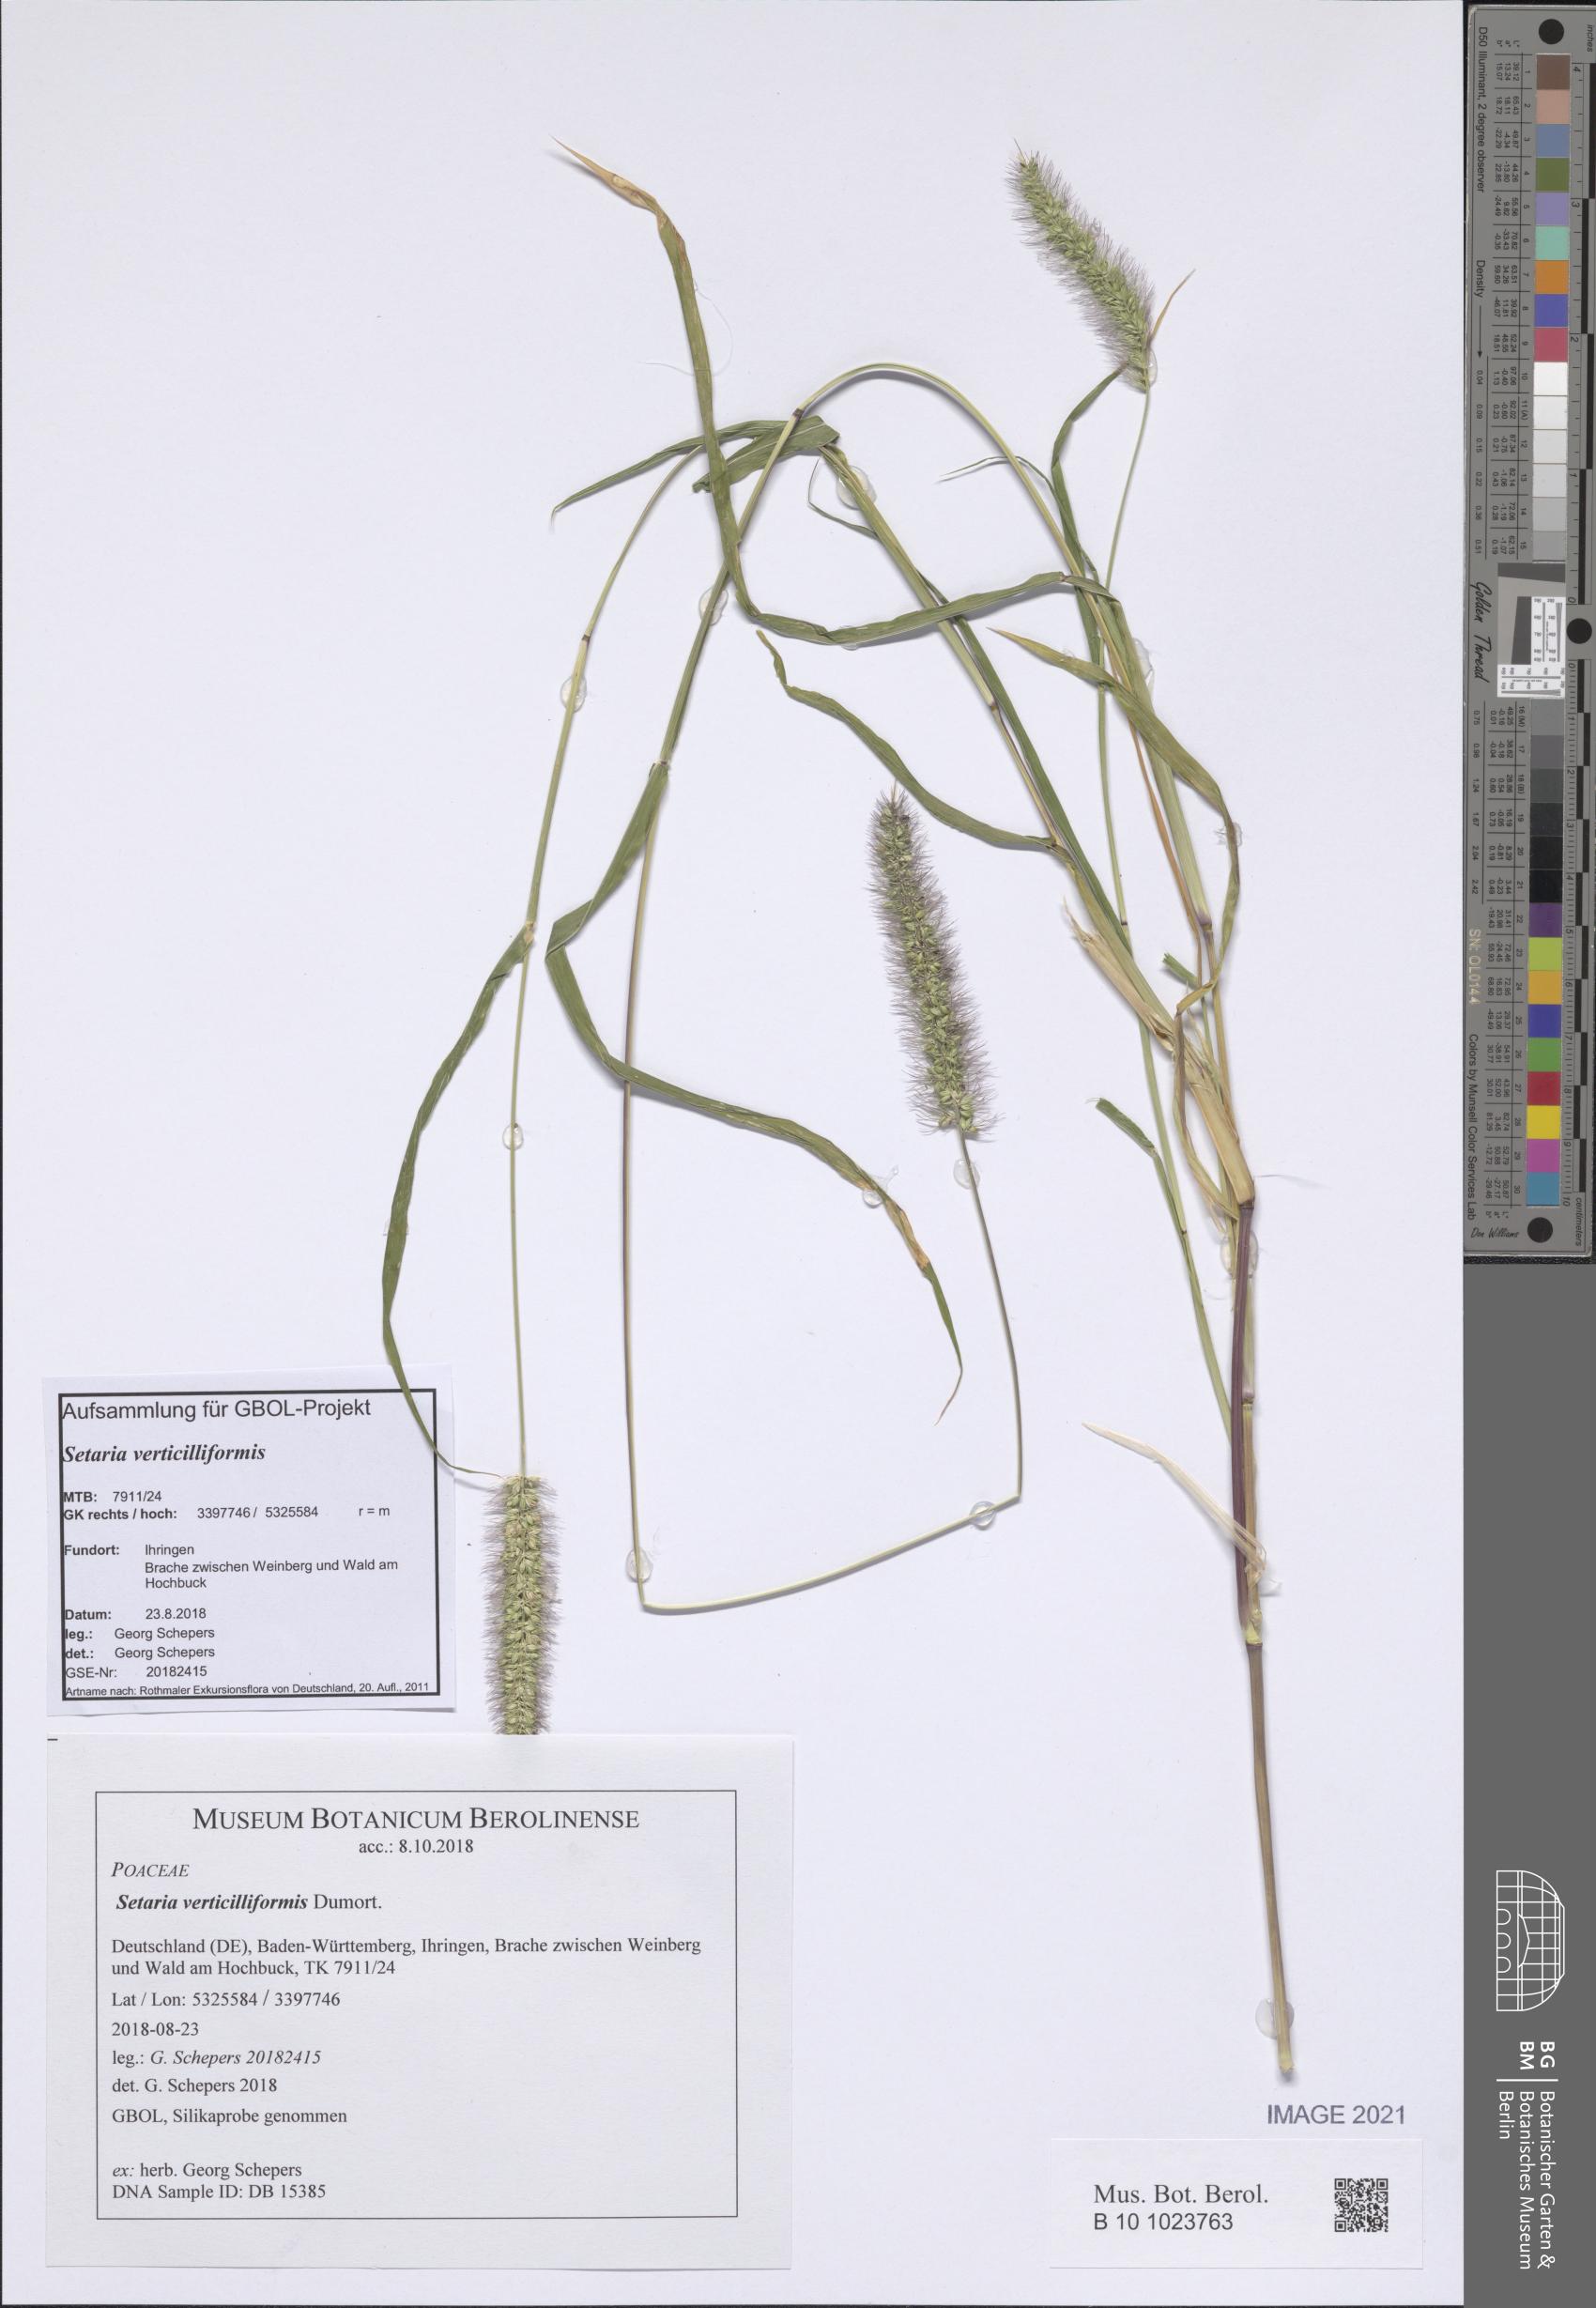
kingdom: Plantae
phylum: Tracheophyta
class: Liliopsida
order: Poales
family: Poaceae
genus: Setaria
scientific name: Setaria verticillata
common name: Hooked bristlegrass
